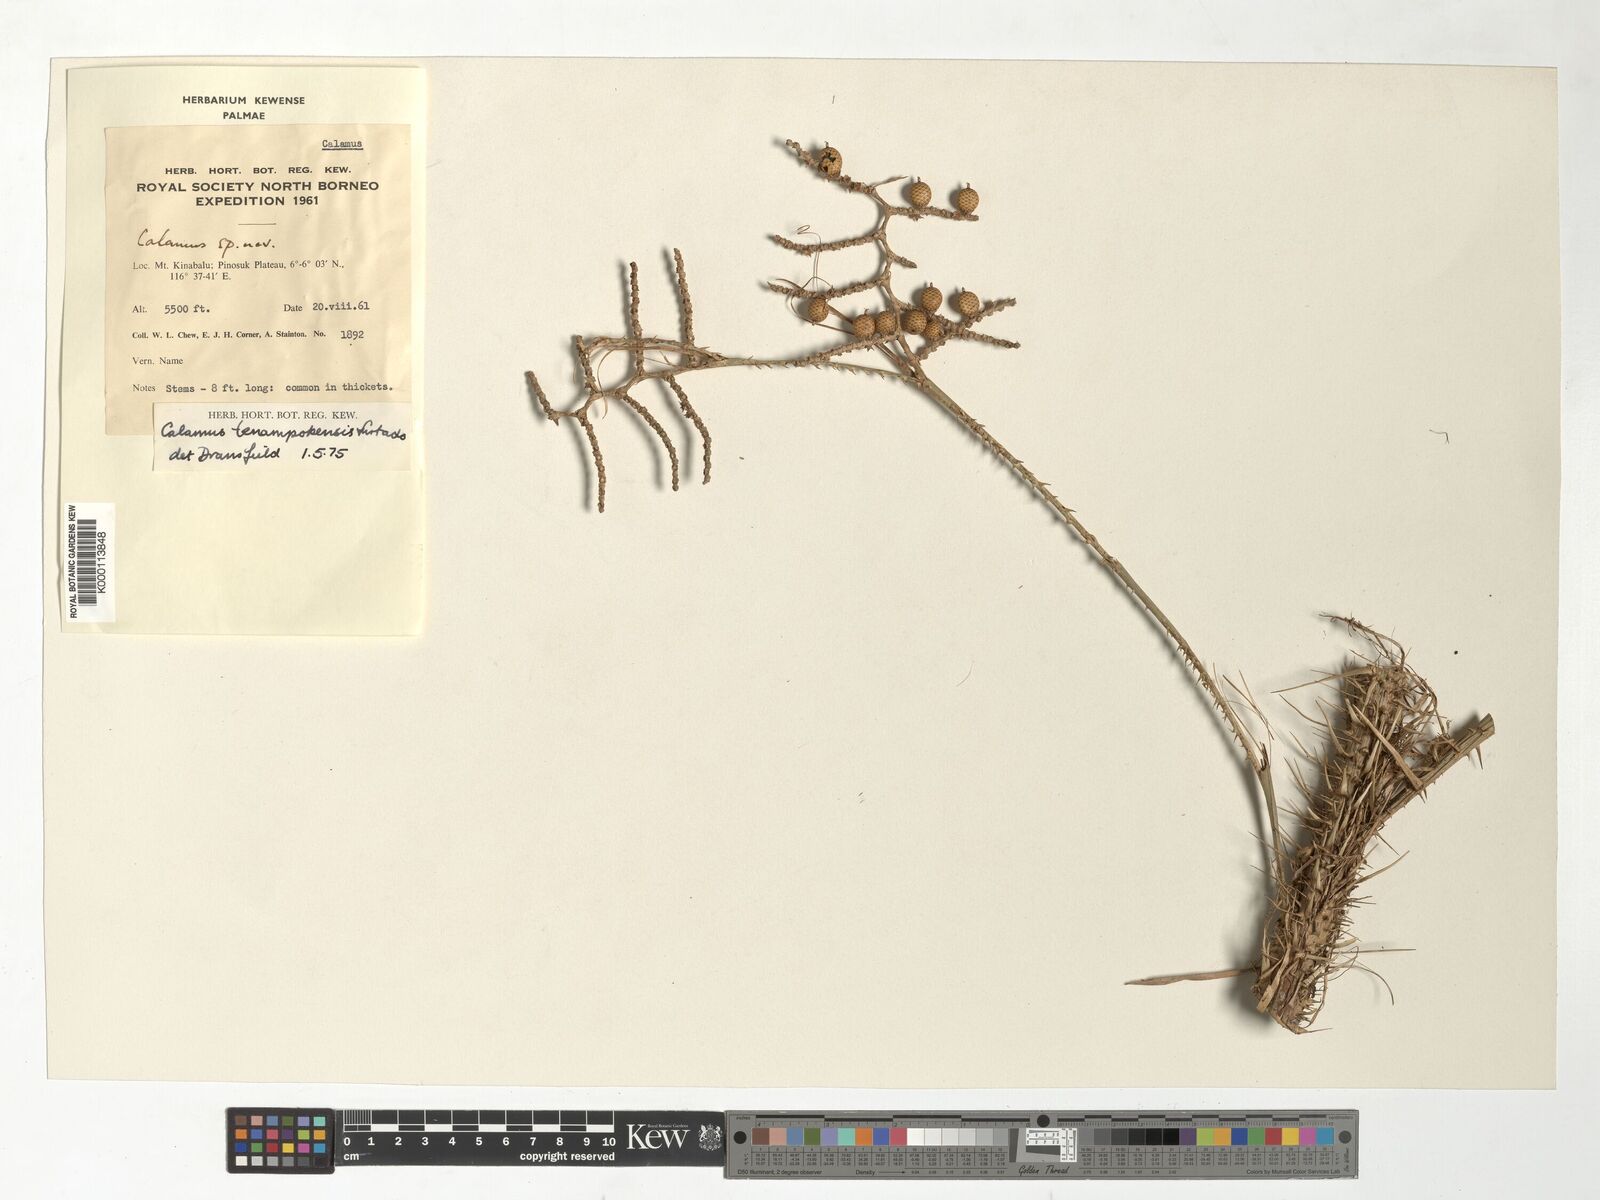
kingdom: Plantae
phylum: Tracheophyta
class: Liliopsida
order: Arecales
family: Arecaceae
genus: Calamus
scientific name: Calamus tenompokensis
